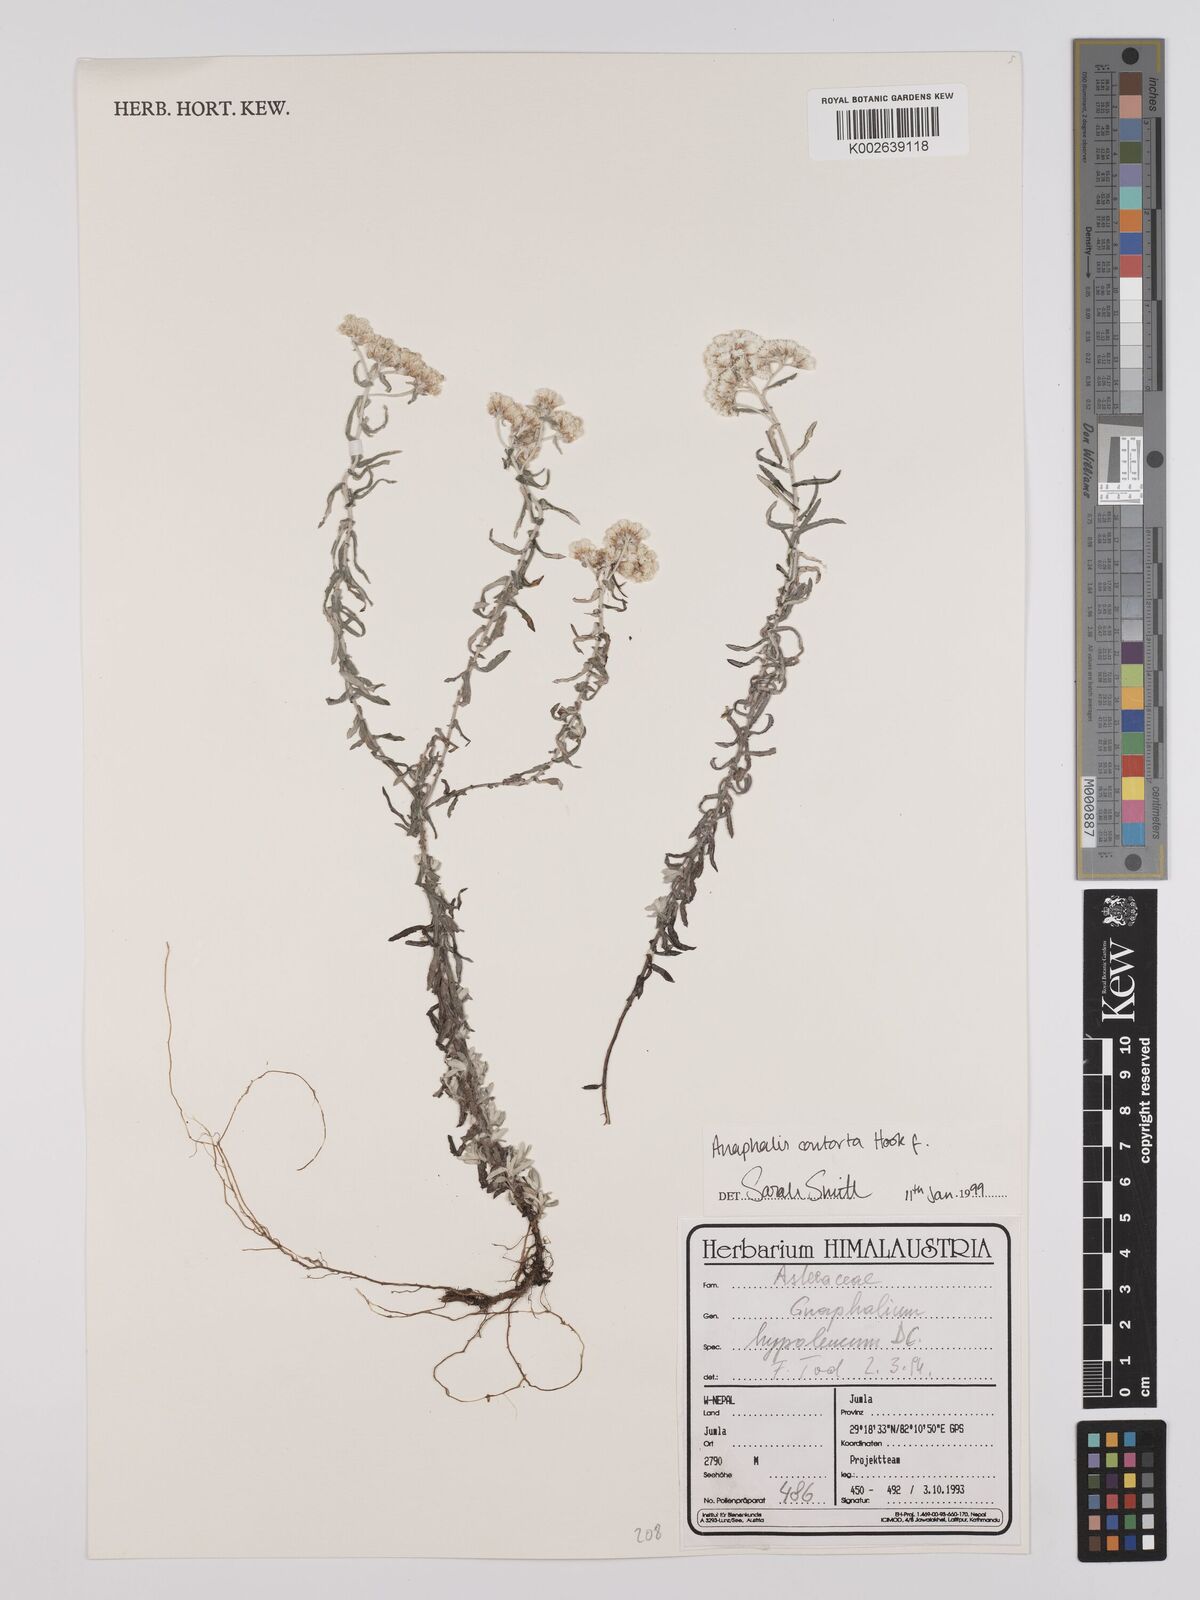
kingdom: Plantae
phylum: Tracheophyta
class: Magnoliopsida
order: Asterales
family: Asteraceae
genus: Anaphalis
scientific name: Anaphalis contorta
